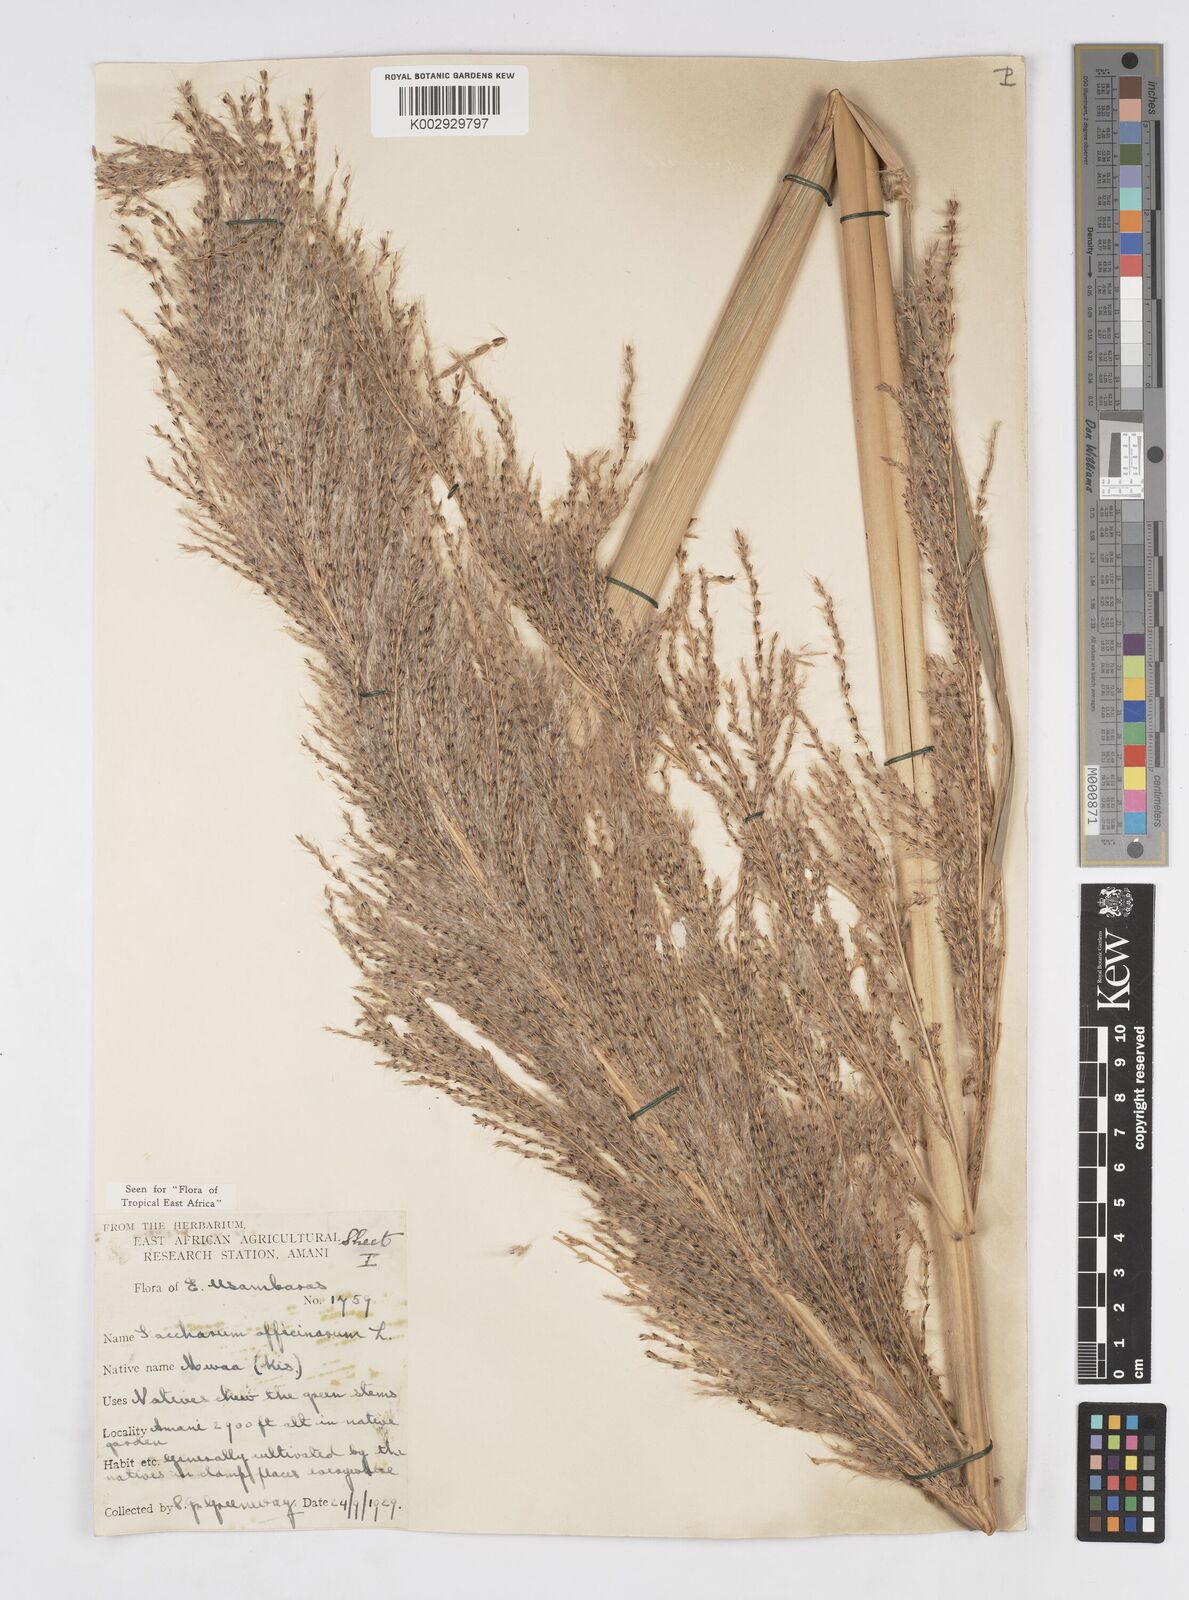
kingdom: Plantae
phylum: Tracheophyta
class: Liliopsida
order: Poales
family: Poaceae
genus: Saccharum
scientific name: Saccharum officinarum
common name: Sugarcane
